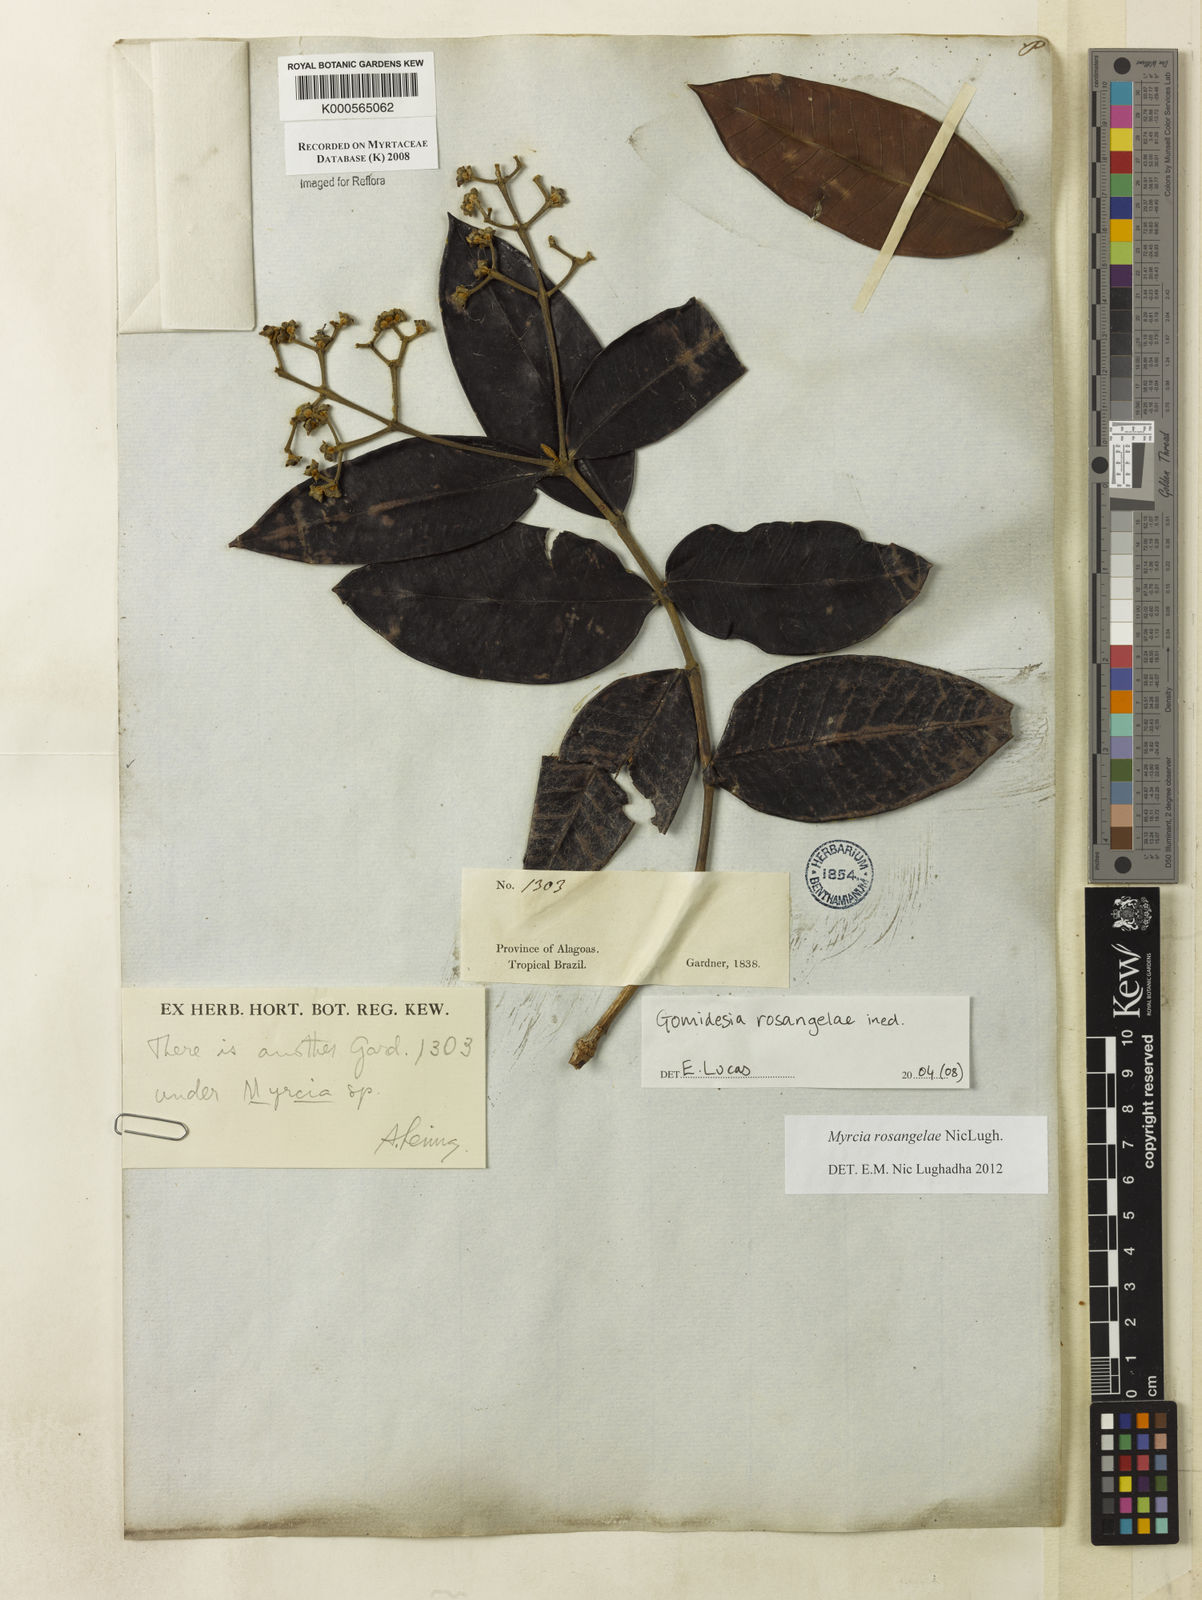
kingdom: Plantae
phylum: Tracheophyta
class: Magnoliopsida
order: Myrtales
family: Myrtaceae
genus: Myrcia
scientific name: Myrcia rosangelae
